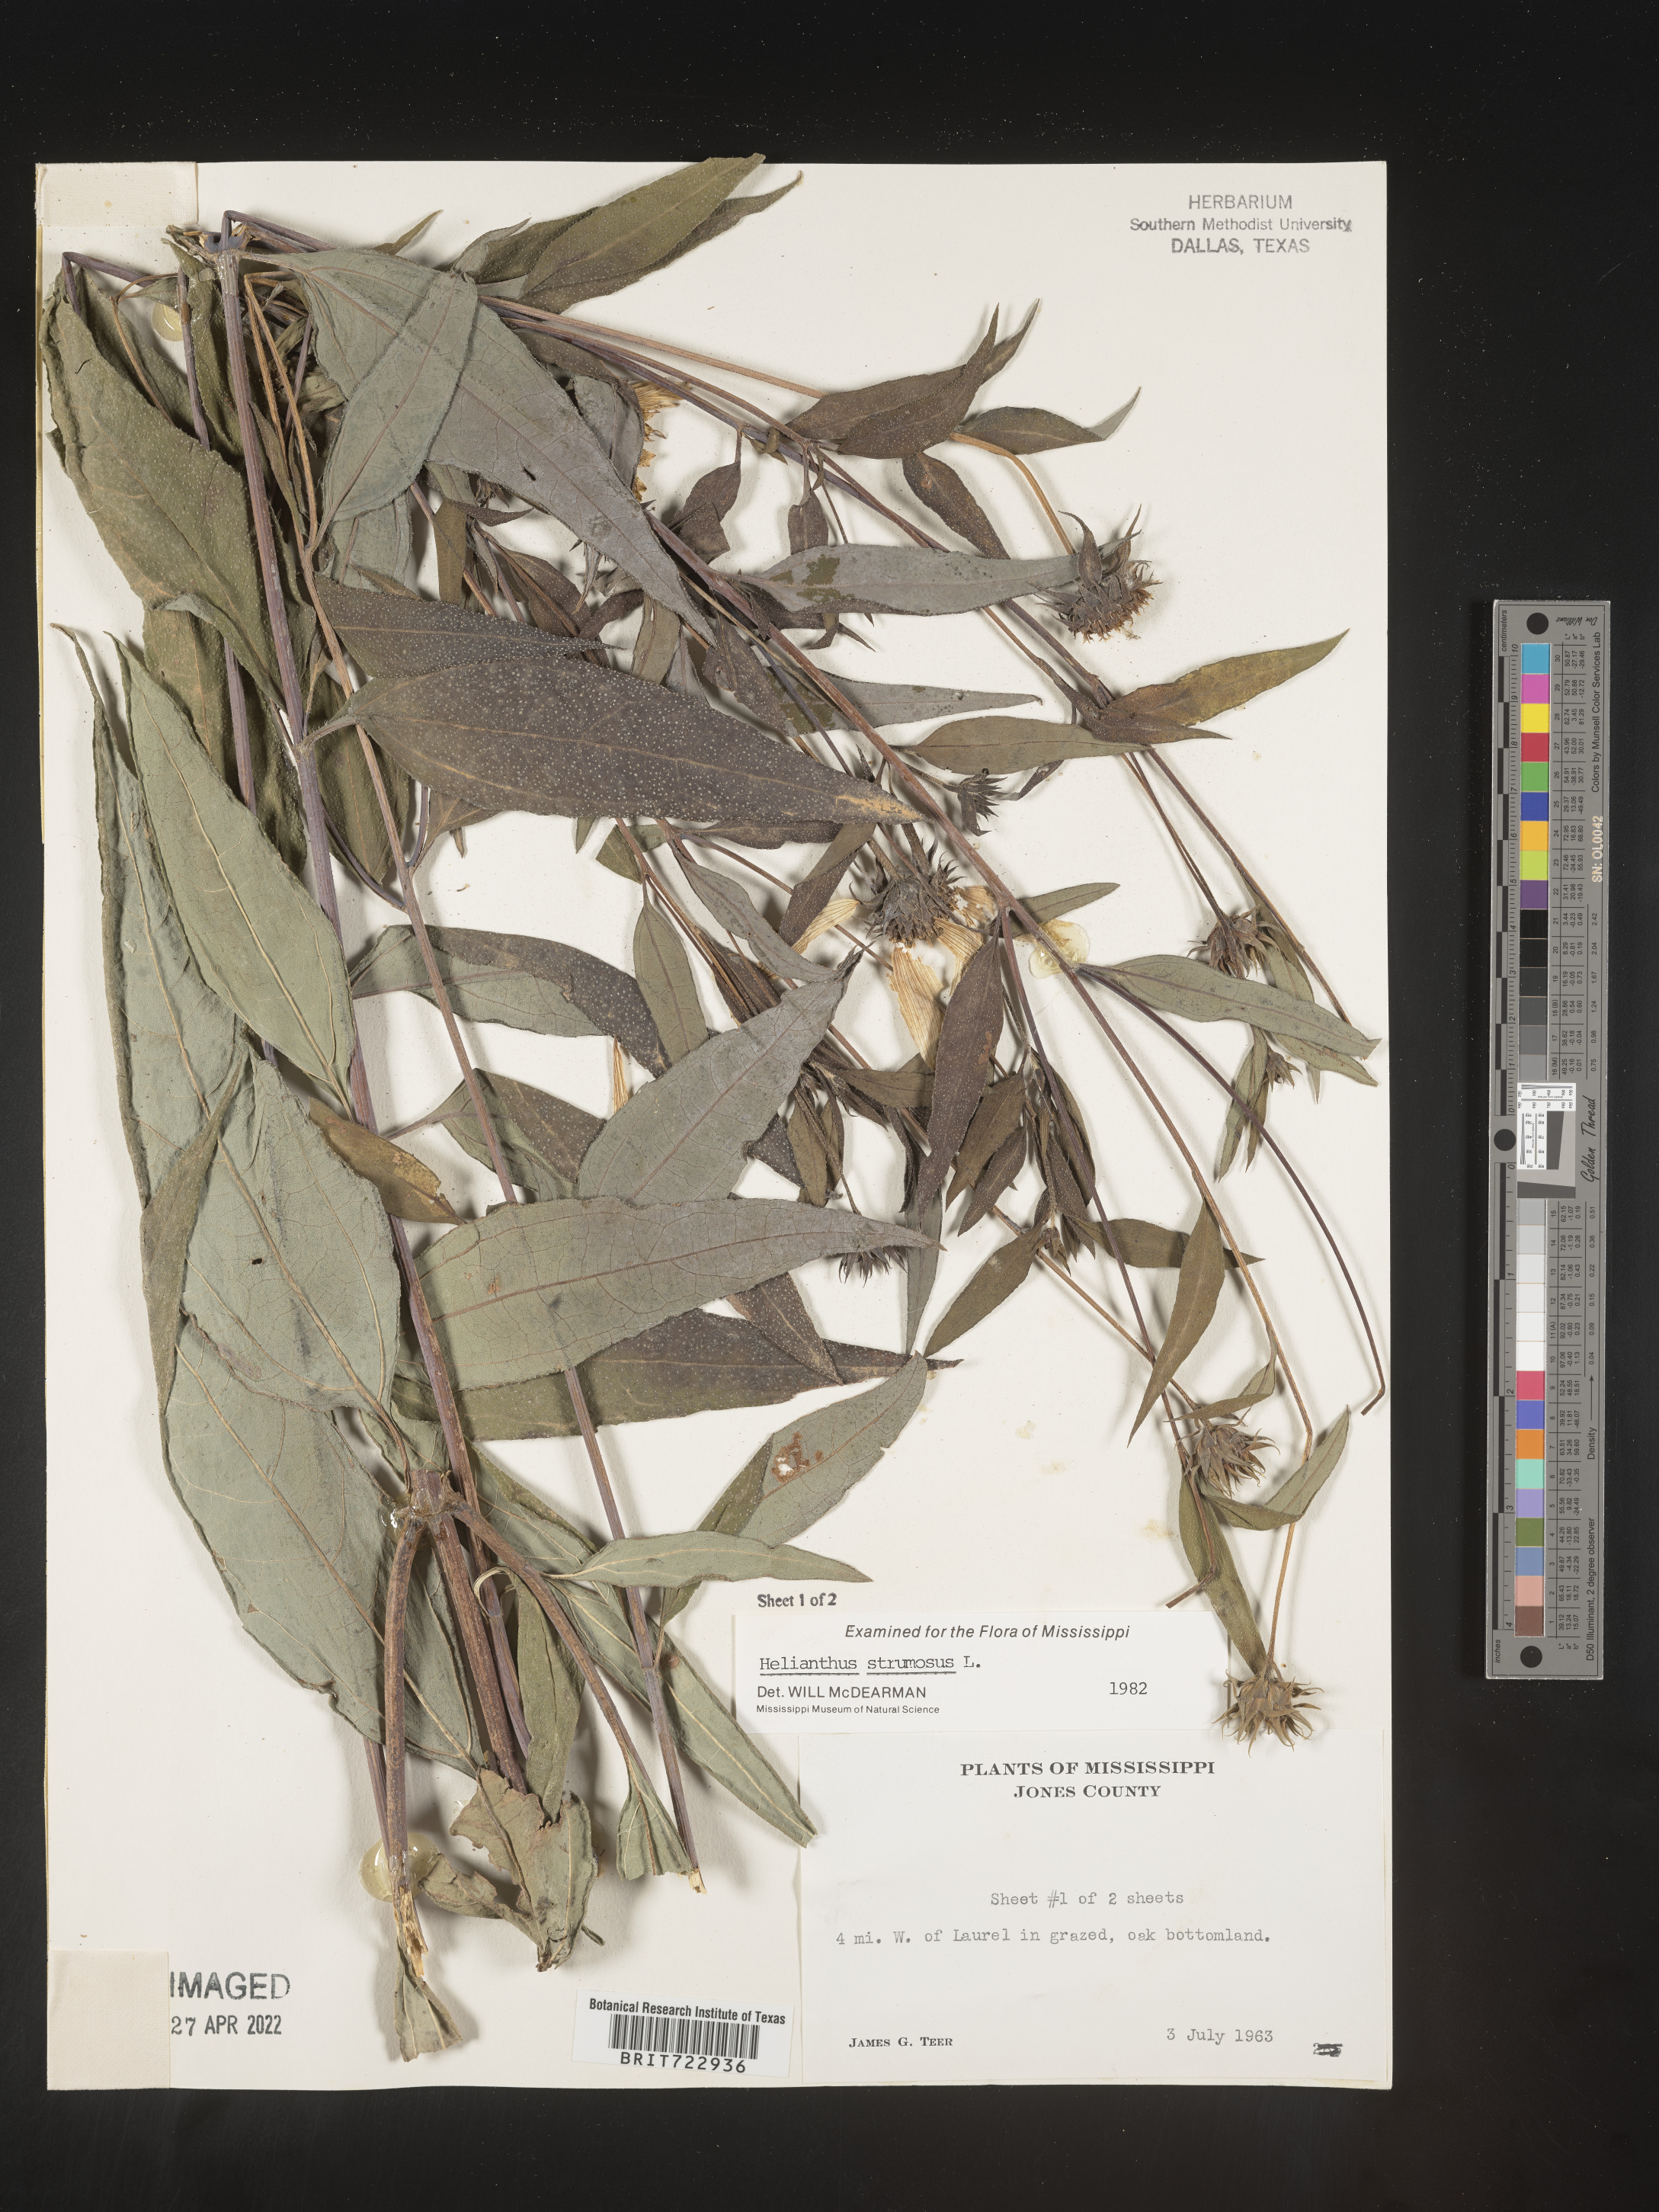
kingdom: Plantae
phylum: Tracheophyta
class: Magnoliopsida
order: Asterales
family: Asteraceae
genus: Helianthus
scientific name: Helianthus strumosus
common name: Pale-leaved sunflower
